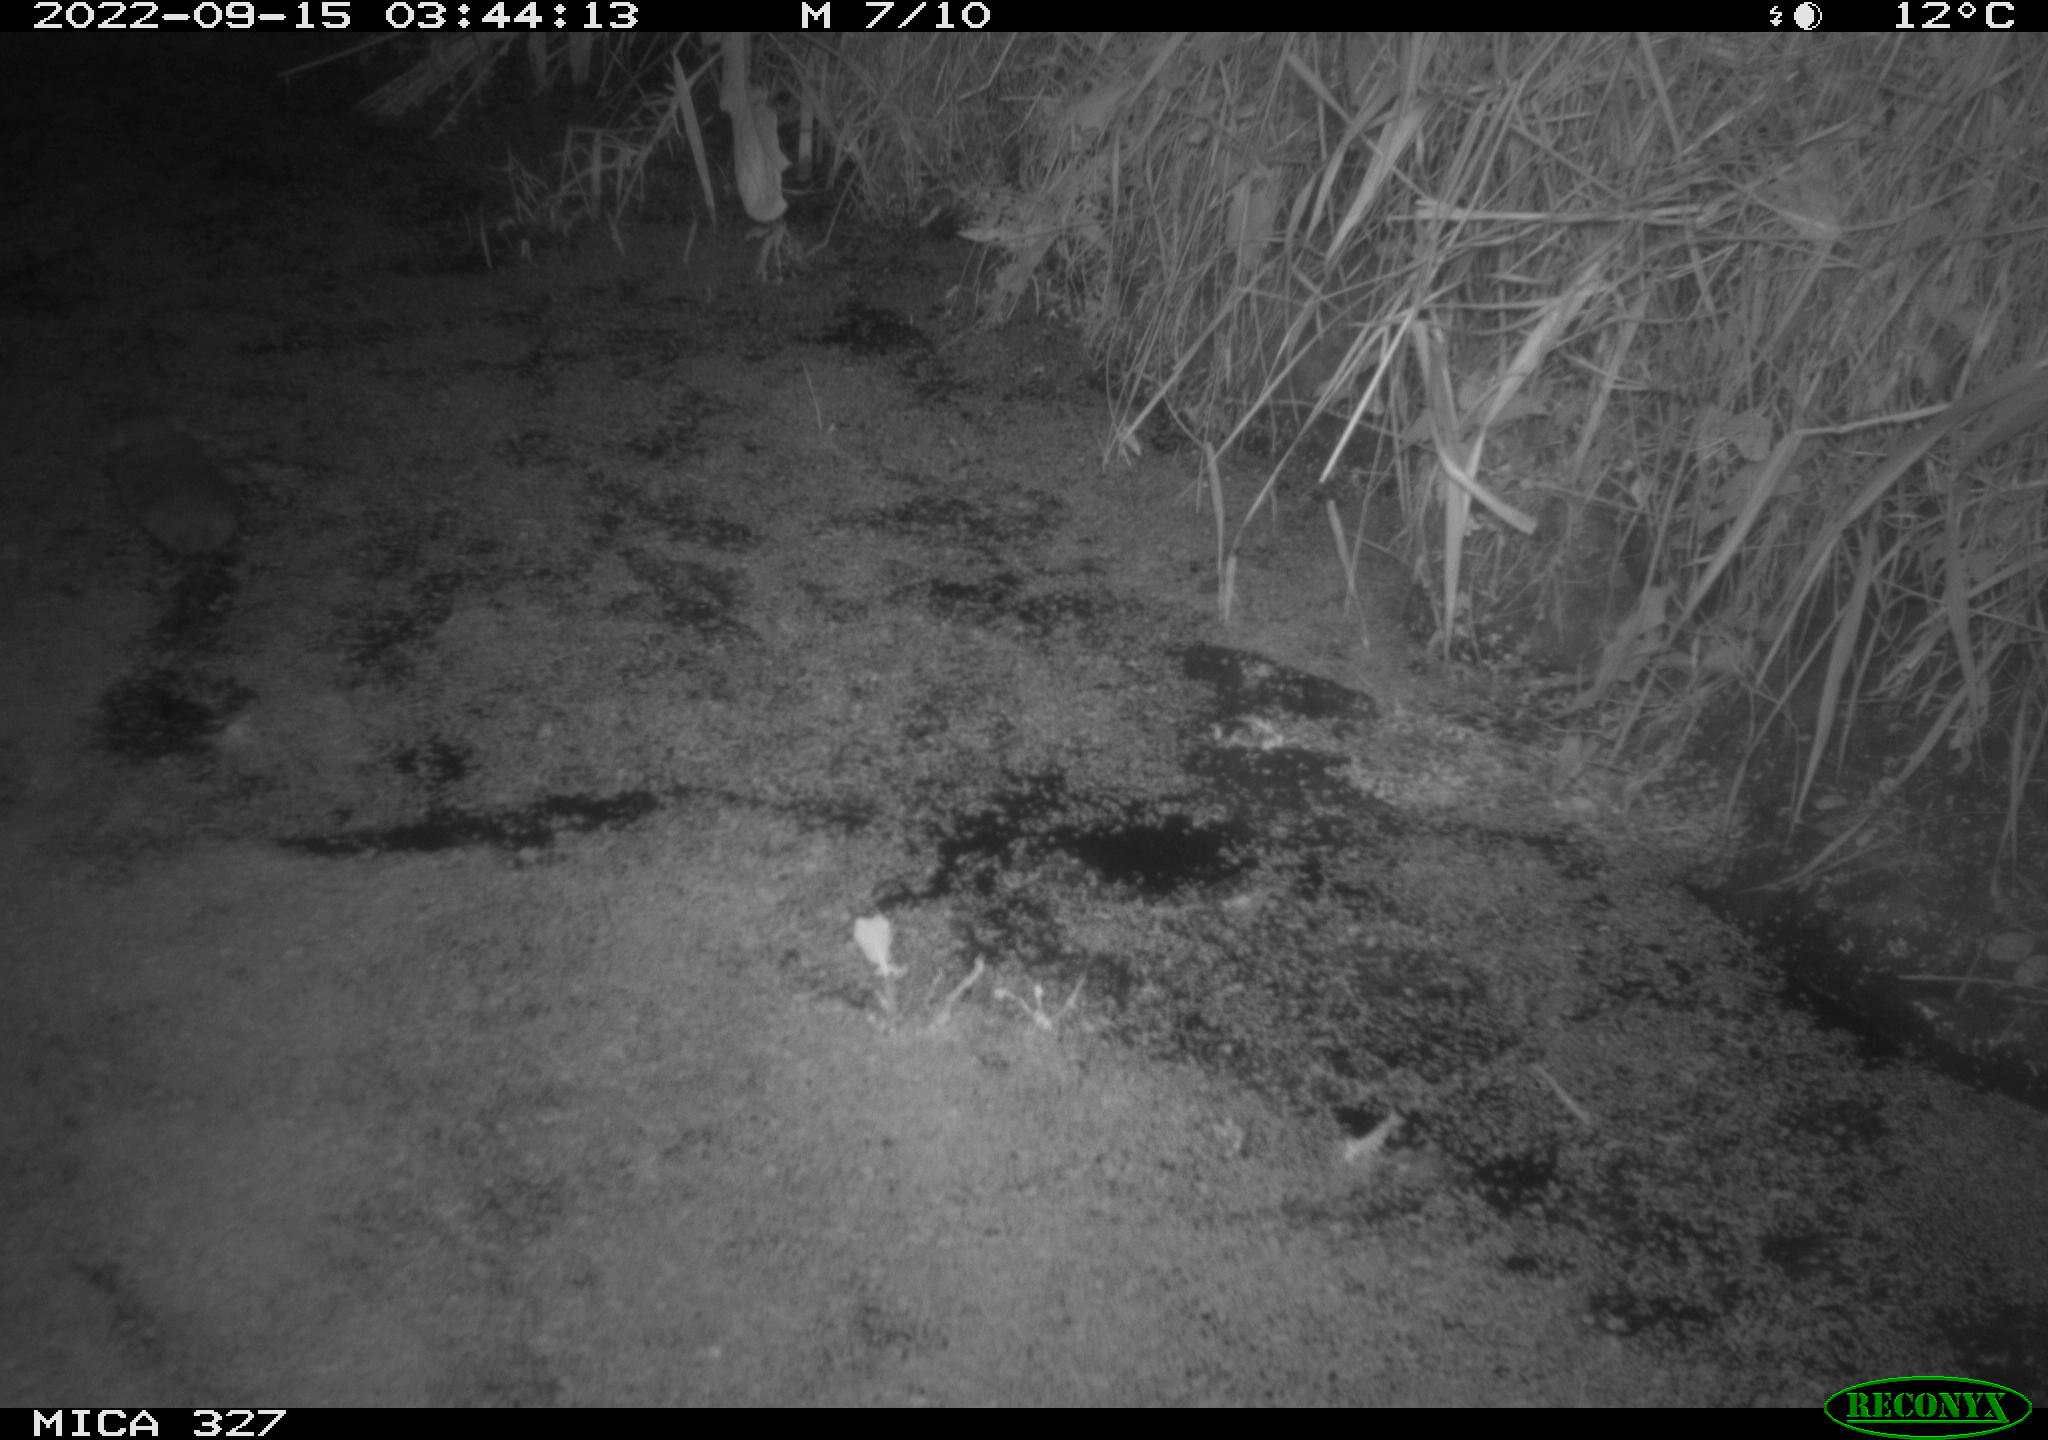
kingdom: Animalia
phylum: Chordata
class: Mammalia
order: Rodentia
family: Cricetidae
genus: Ondatra
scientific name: Ondatra zibethicus
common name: Muskrat
